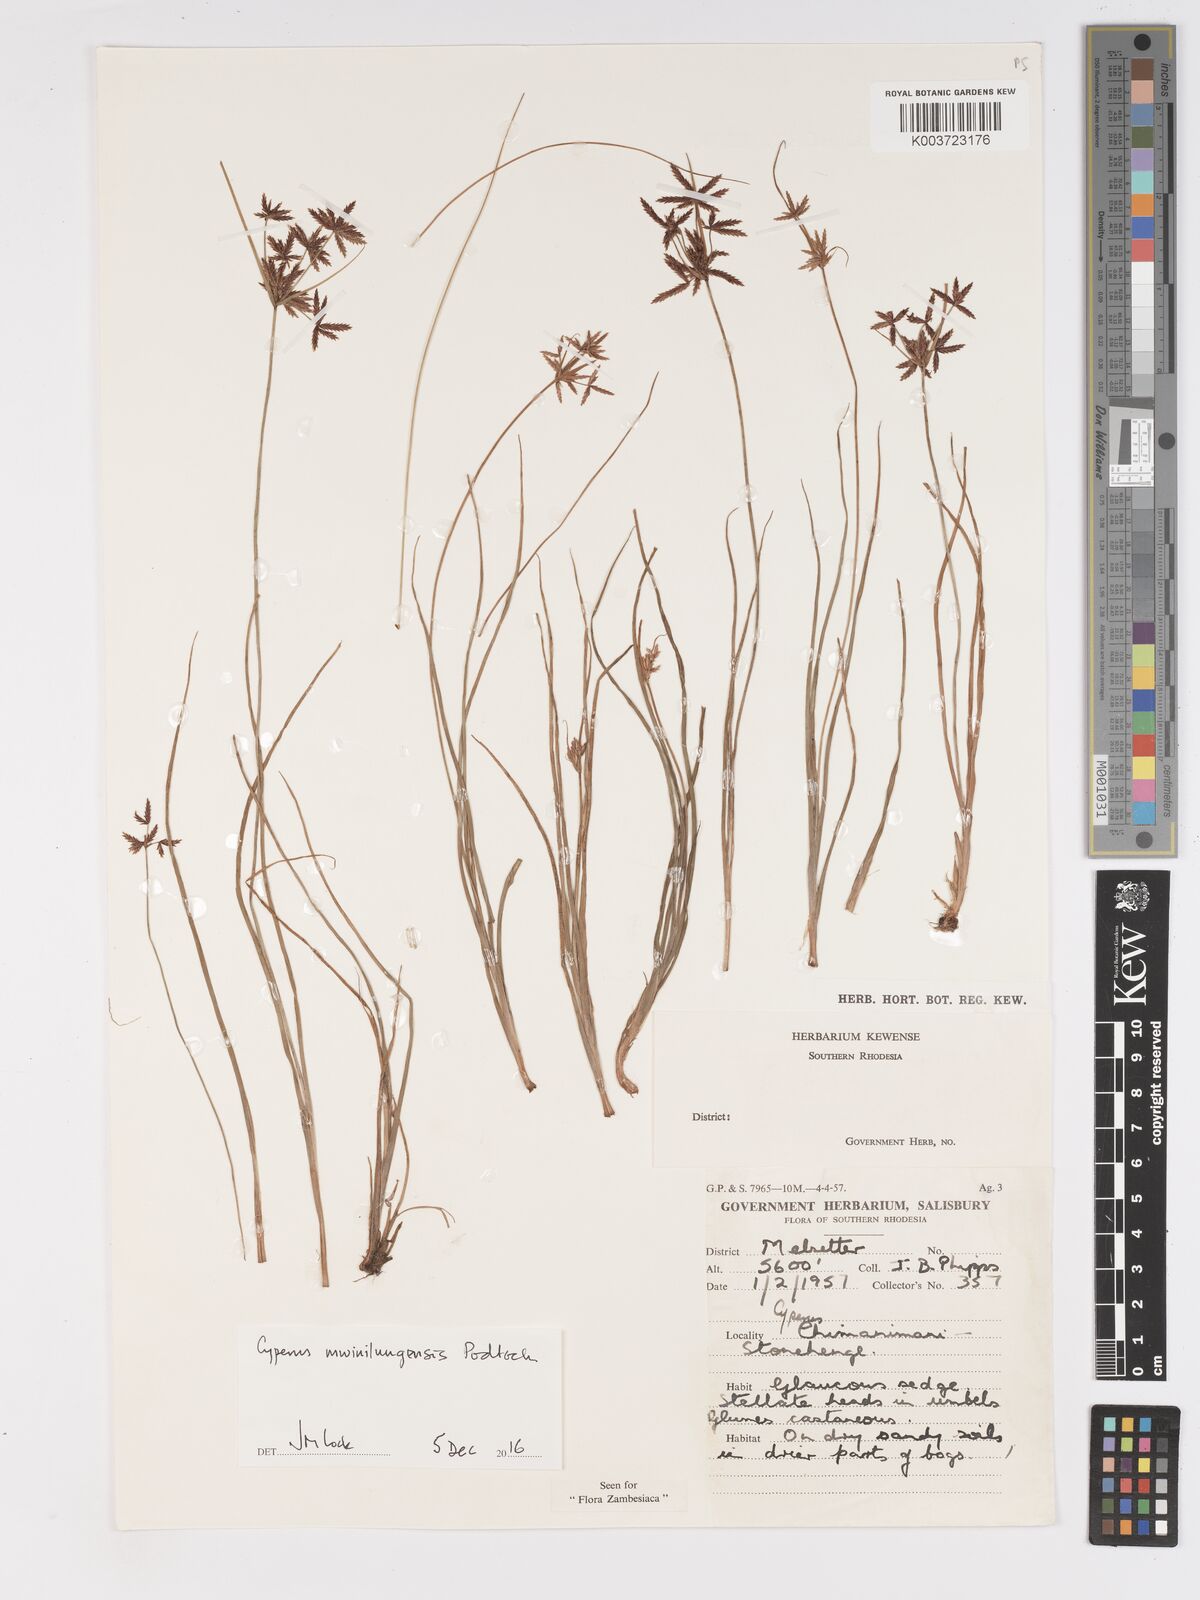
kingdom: Plantae
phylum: Tracheophyta
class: Liliopsida
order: Poales
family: Cyperaceae
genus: Cyperus
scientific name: Cyperus mwinilungensis
